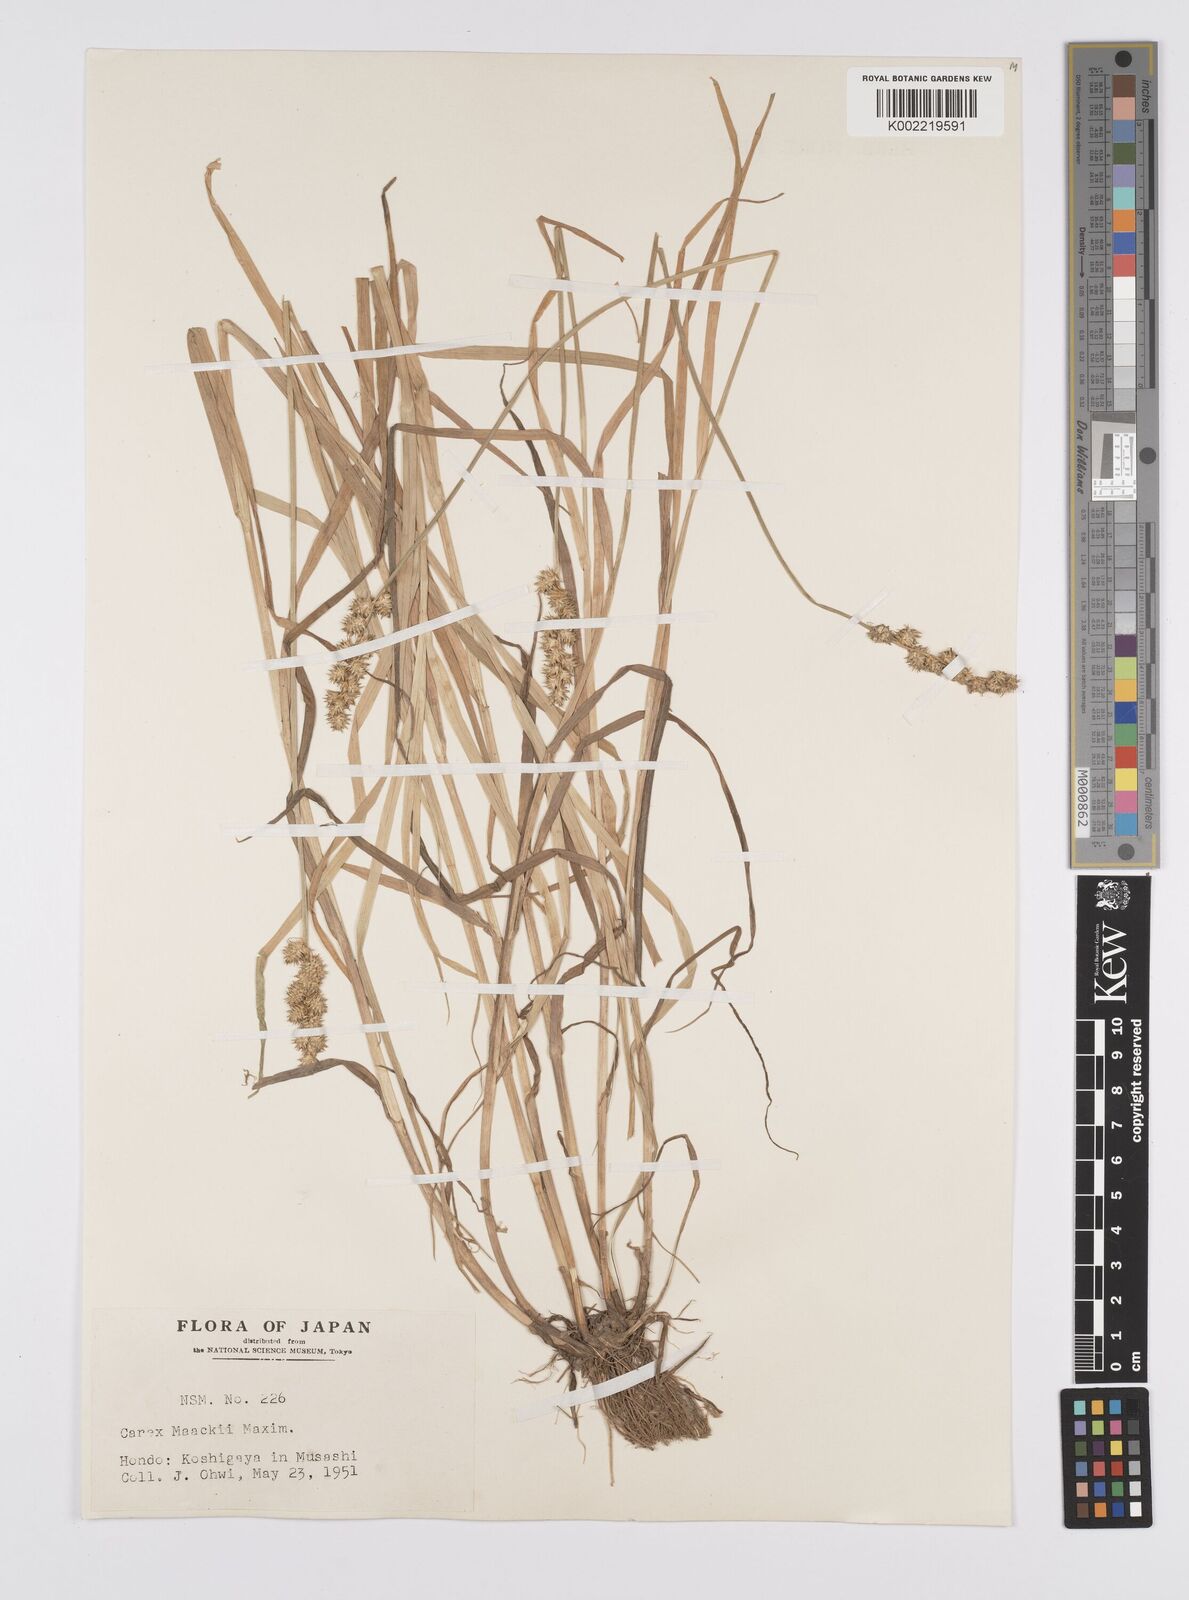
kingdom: Plantae
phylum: Tracheophyta
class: Liliopsida
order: Poales
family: Cyperaceae
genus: Carex
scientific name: Carex maackii
